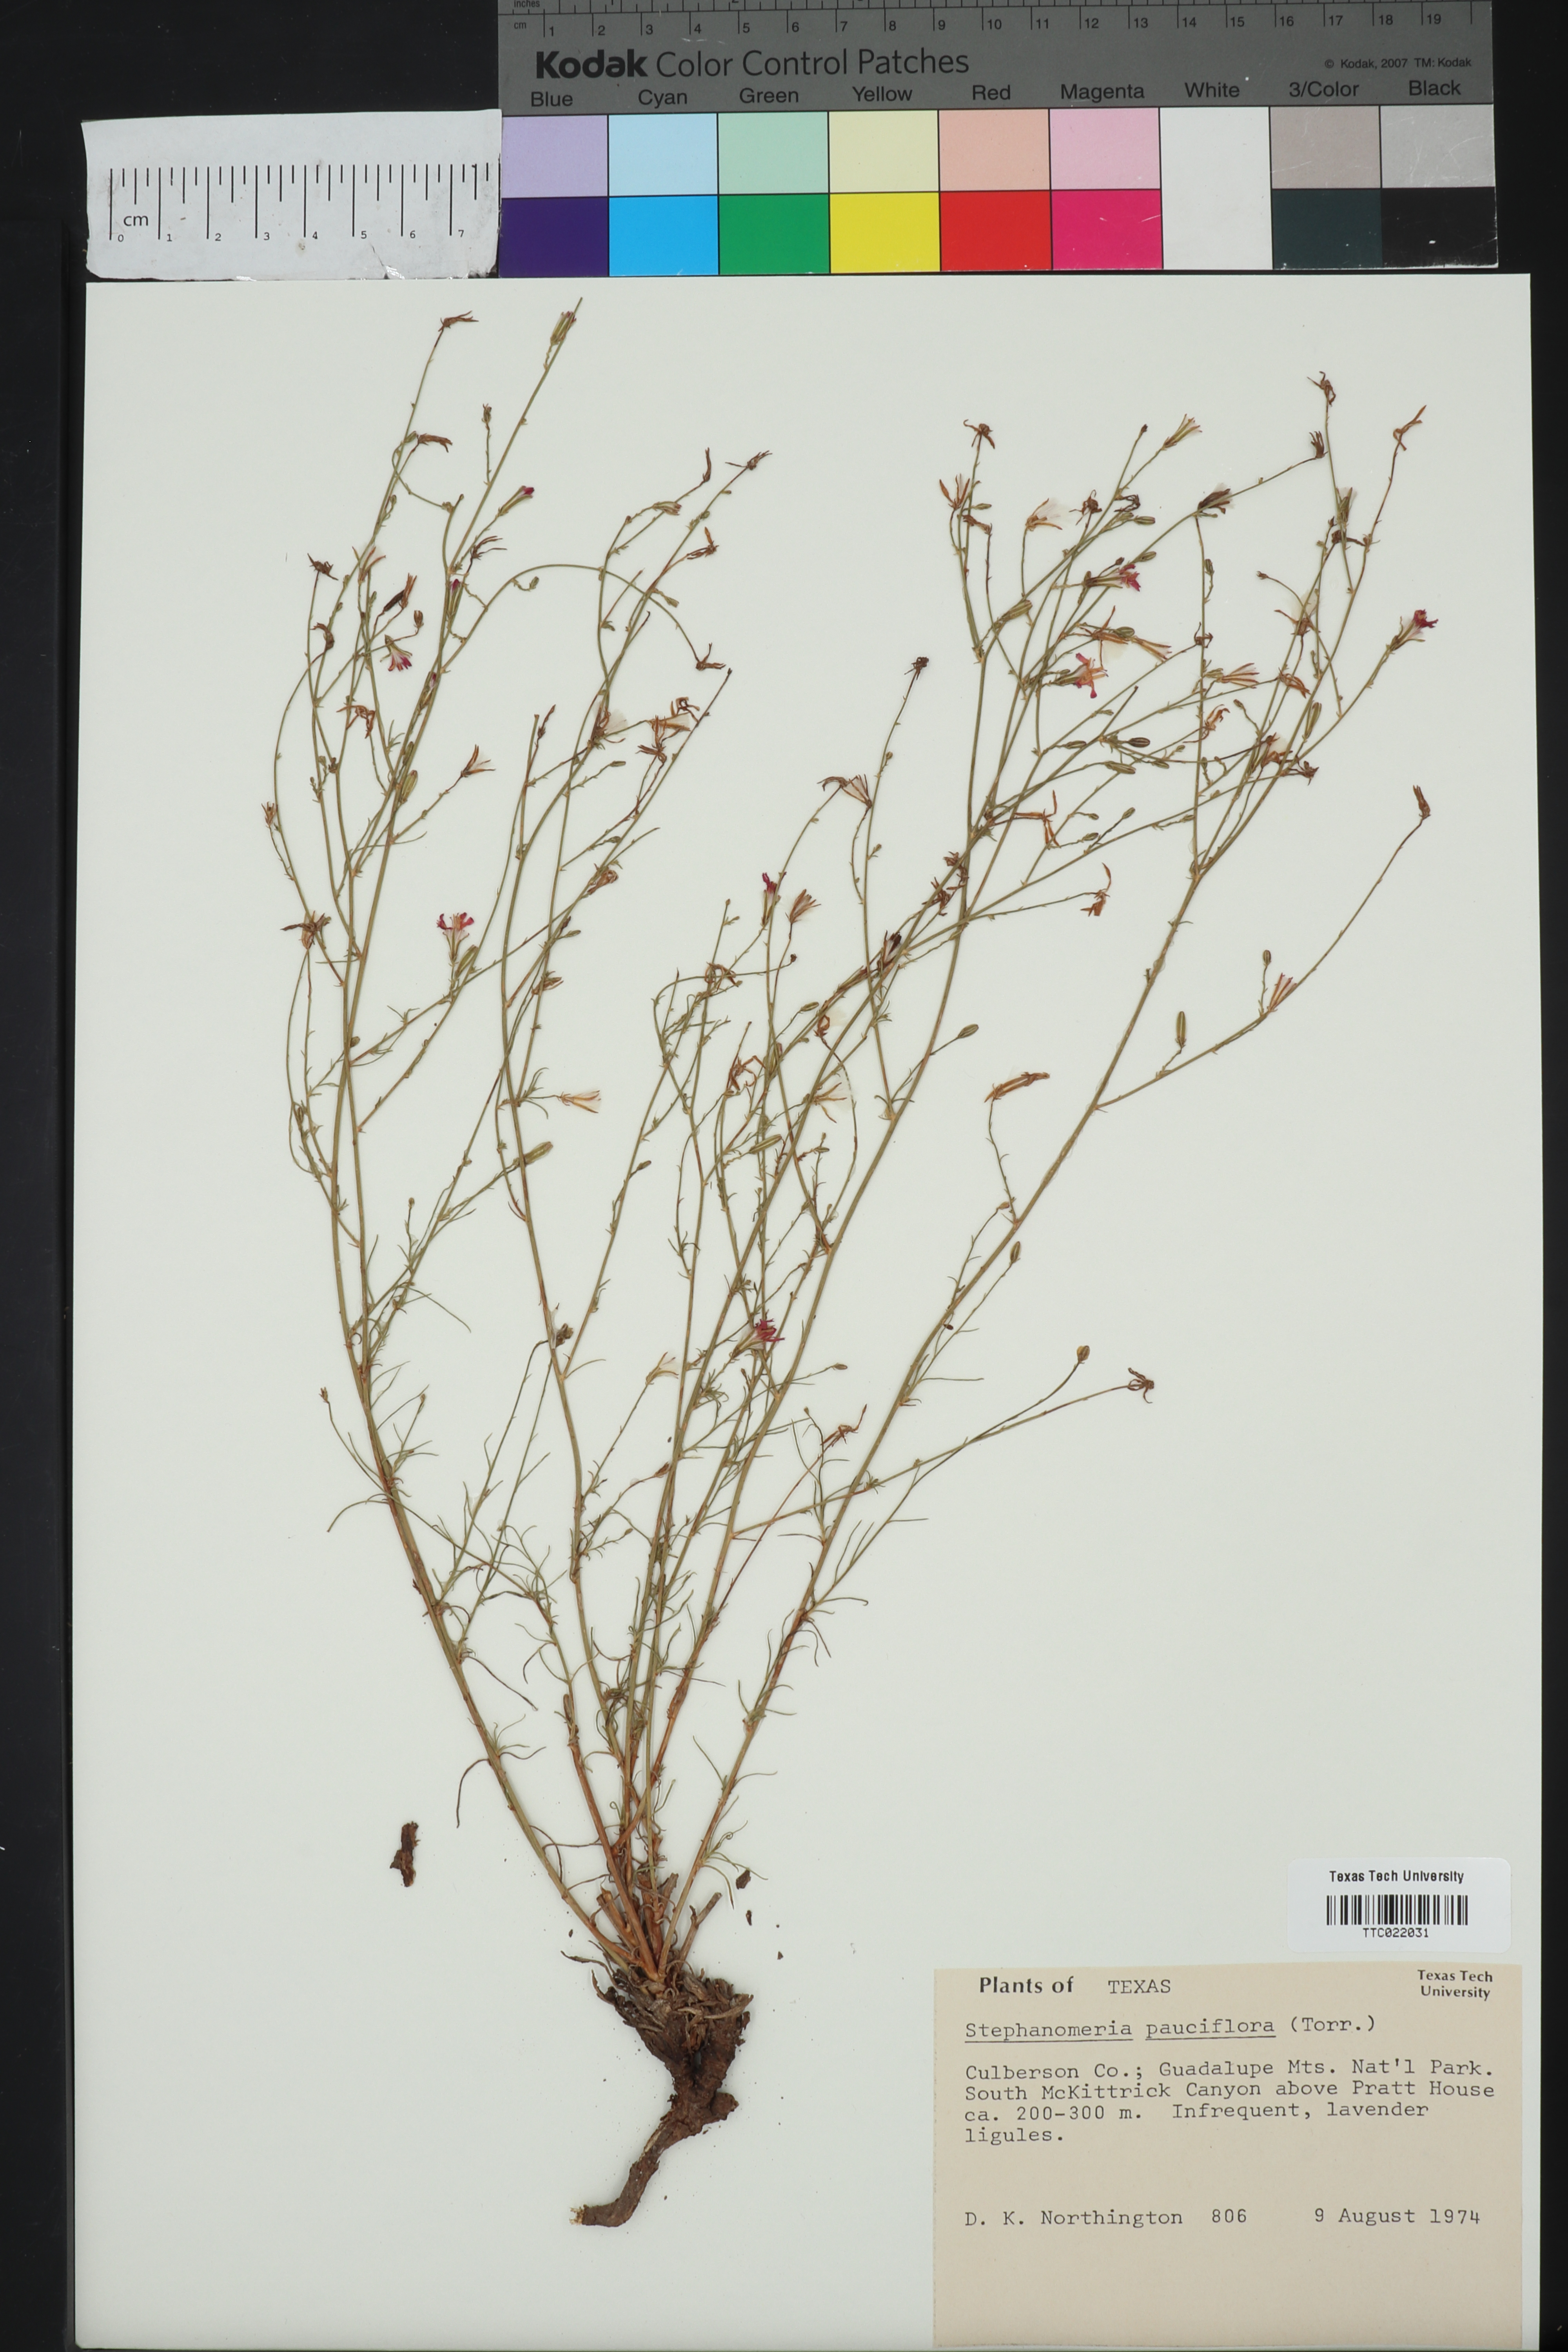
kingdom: Plantae
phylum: Tracheophyta
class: Magnoliopsida
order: Asterales
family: Asteraceae
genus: Stephanomeria
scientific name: Stephanomeria pauciflora
